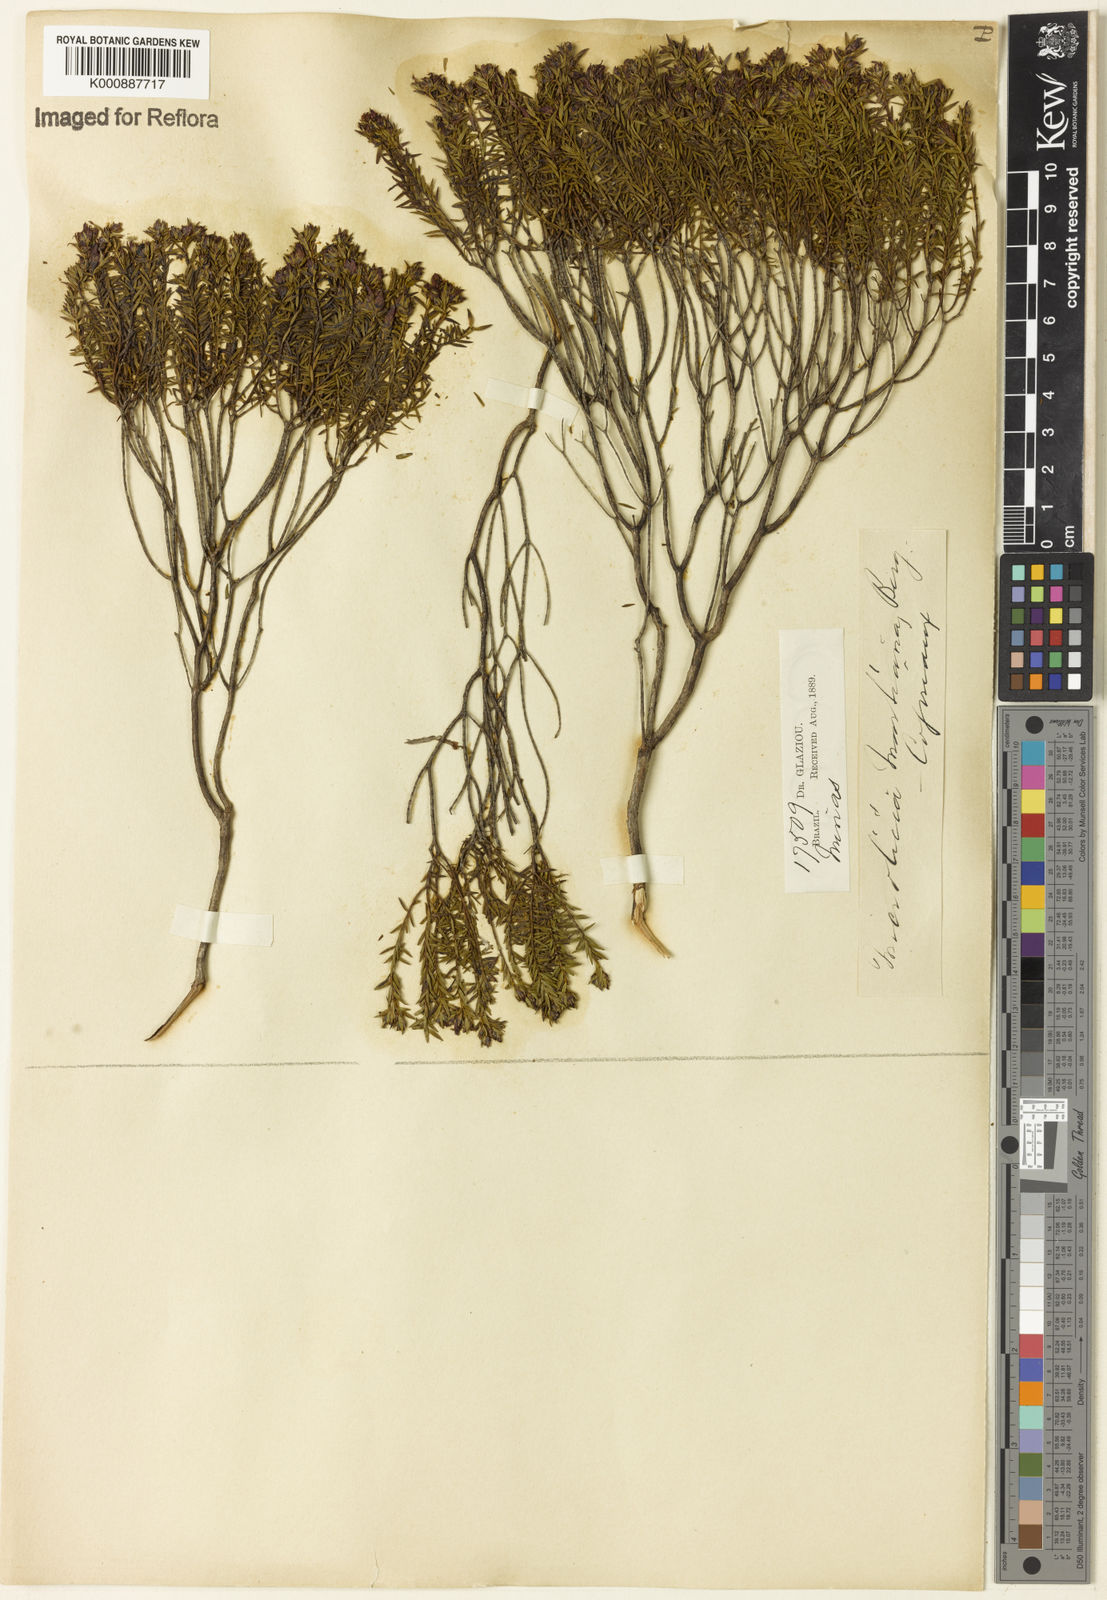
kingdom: Plantae
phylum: Tracheophyta
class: Magnoliopsida
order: Myrtales
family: Melastomataceae
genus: Microlicia
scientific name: Microlicia martiana
